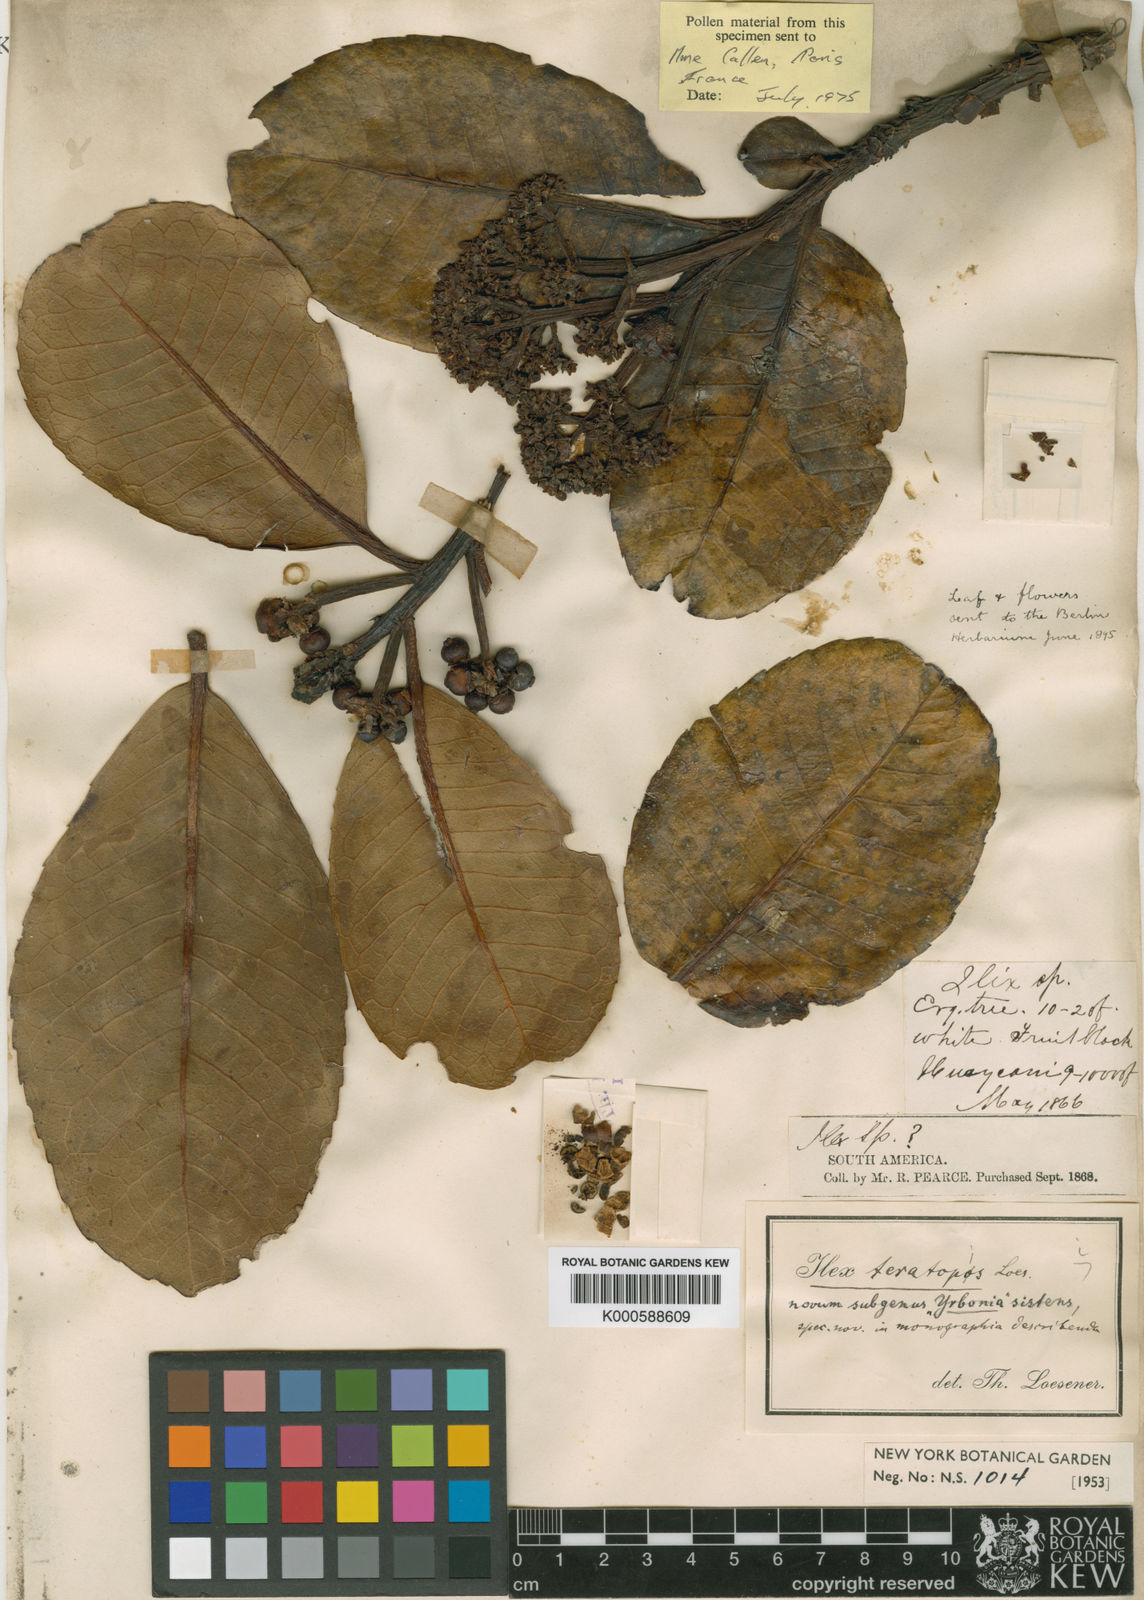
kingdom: Plantae
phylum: Tracheophyta
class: Magnoliopsida
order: Aquifoliales
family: Aquifoliaceae
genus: Ilex
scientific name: Ilex teratopis
